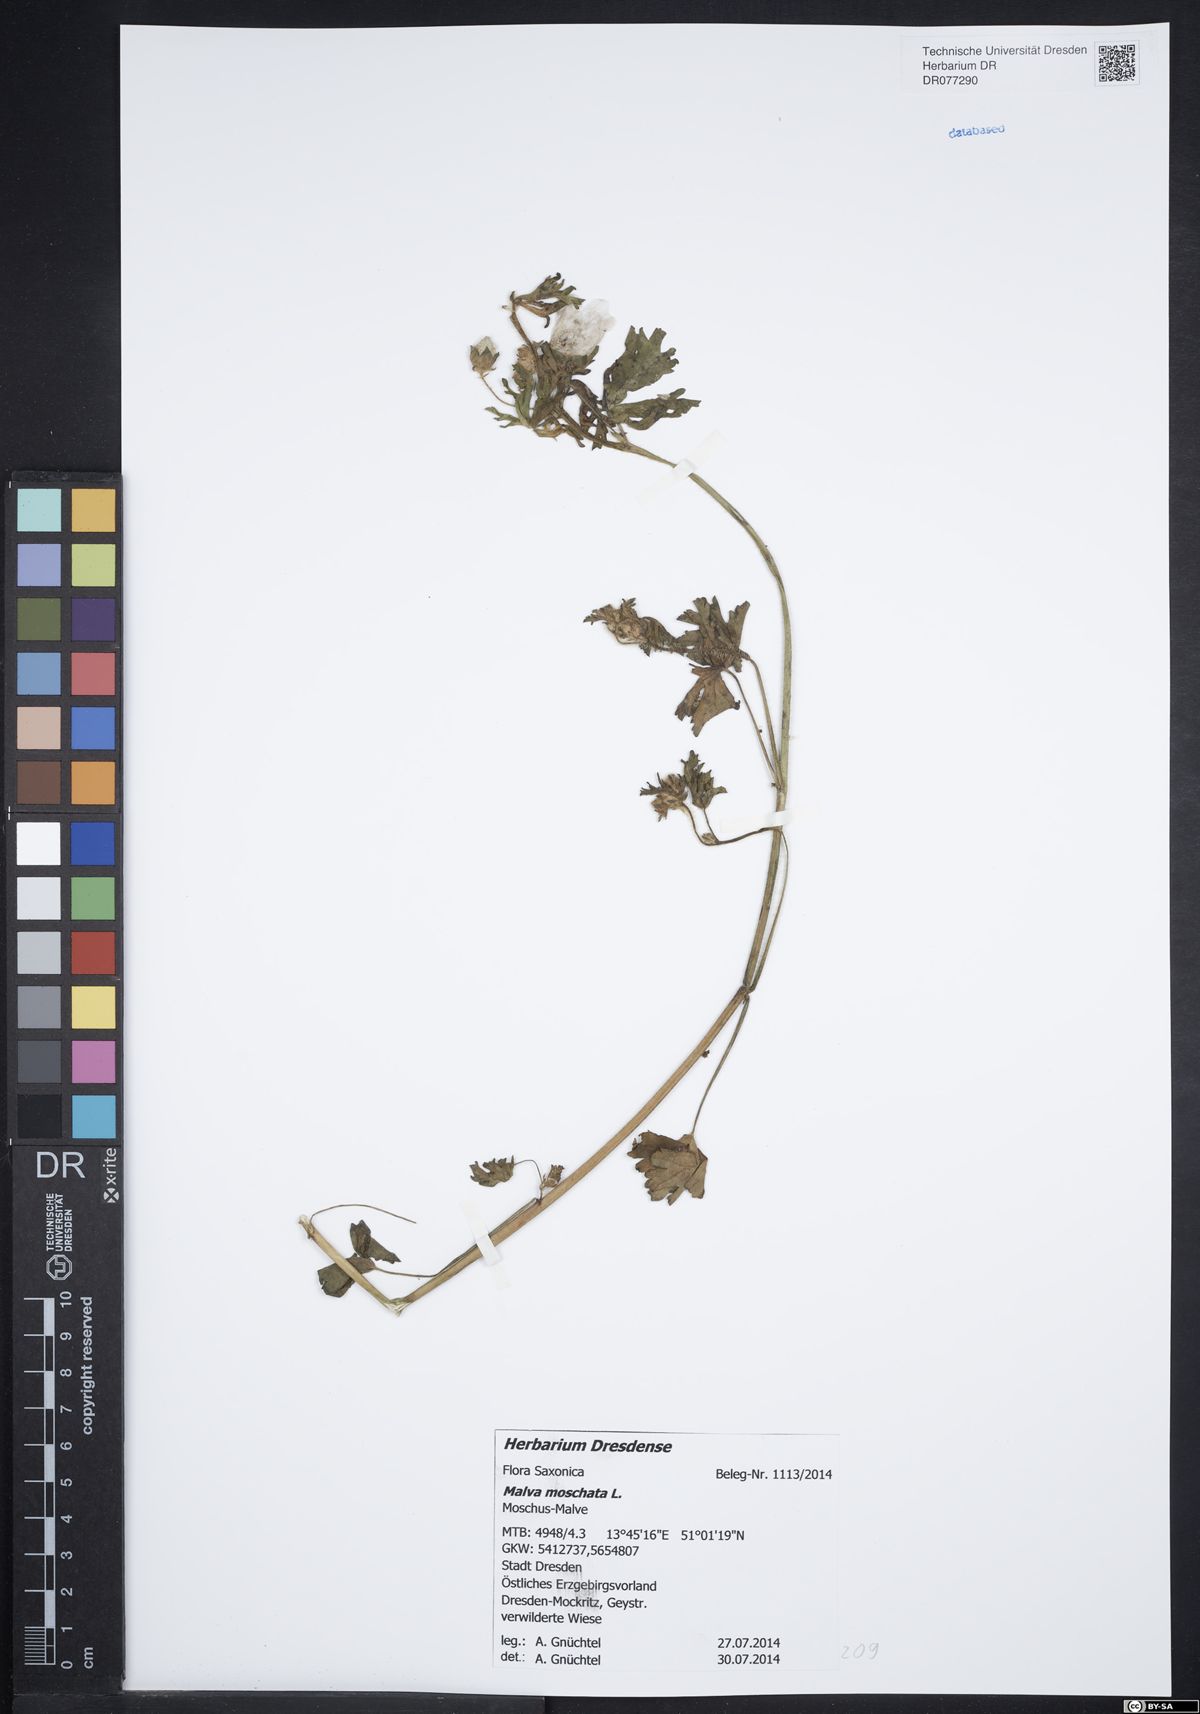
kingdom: Plantae
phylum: Tracheophyta
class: Magnoliopsida
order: Malvales
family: Malvaceae
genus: Malva
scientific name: Malva moschata
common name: Musk mallow
